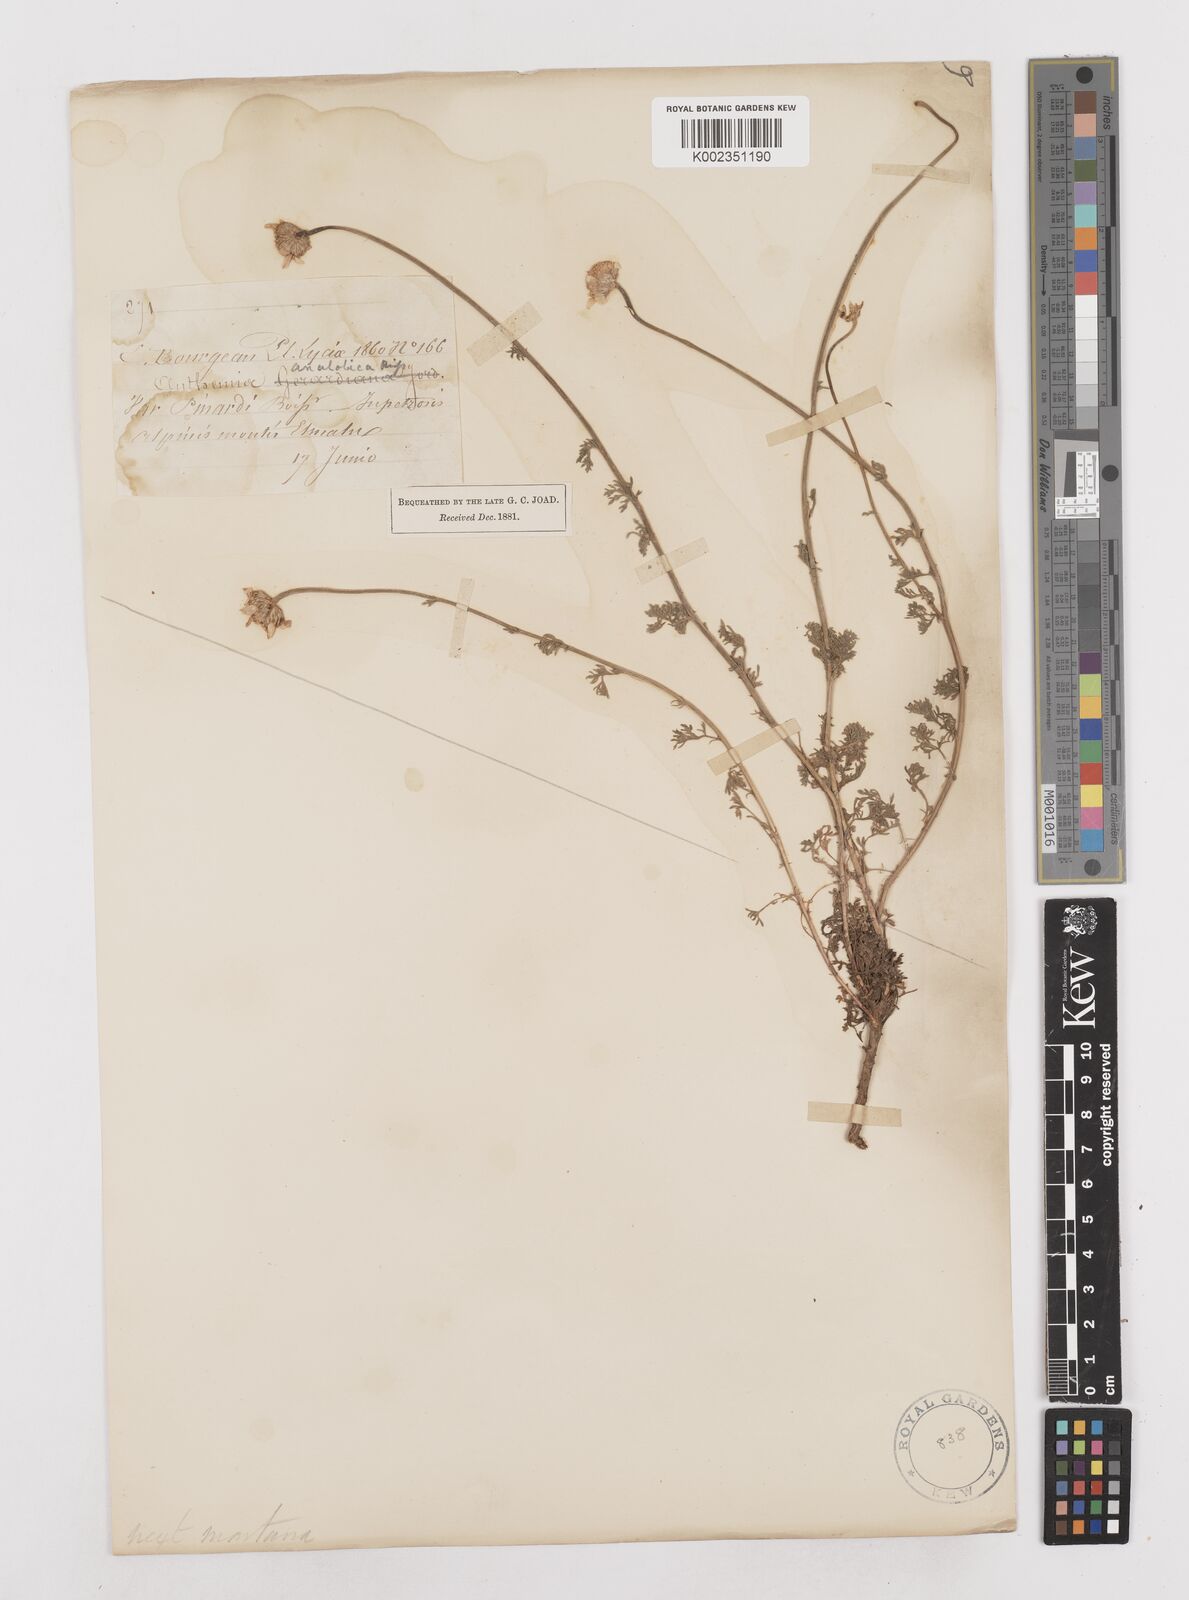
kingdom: Plantae
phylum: Tracheophyta
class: Magnoliopsida
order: Asterales
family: Asteraceae
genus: Anthemis
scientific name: Anthemis cretica
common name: Mountain dog-daisy
